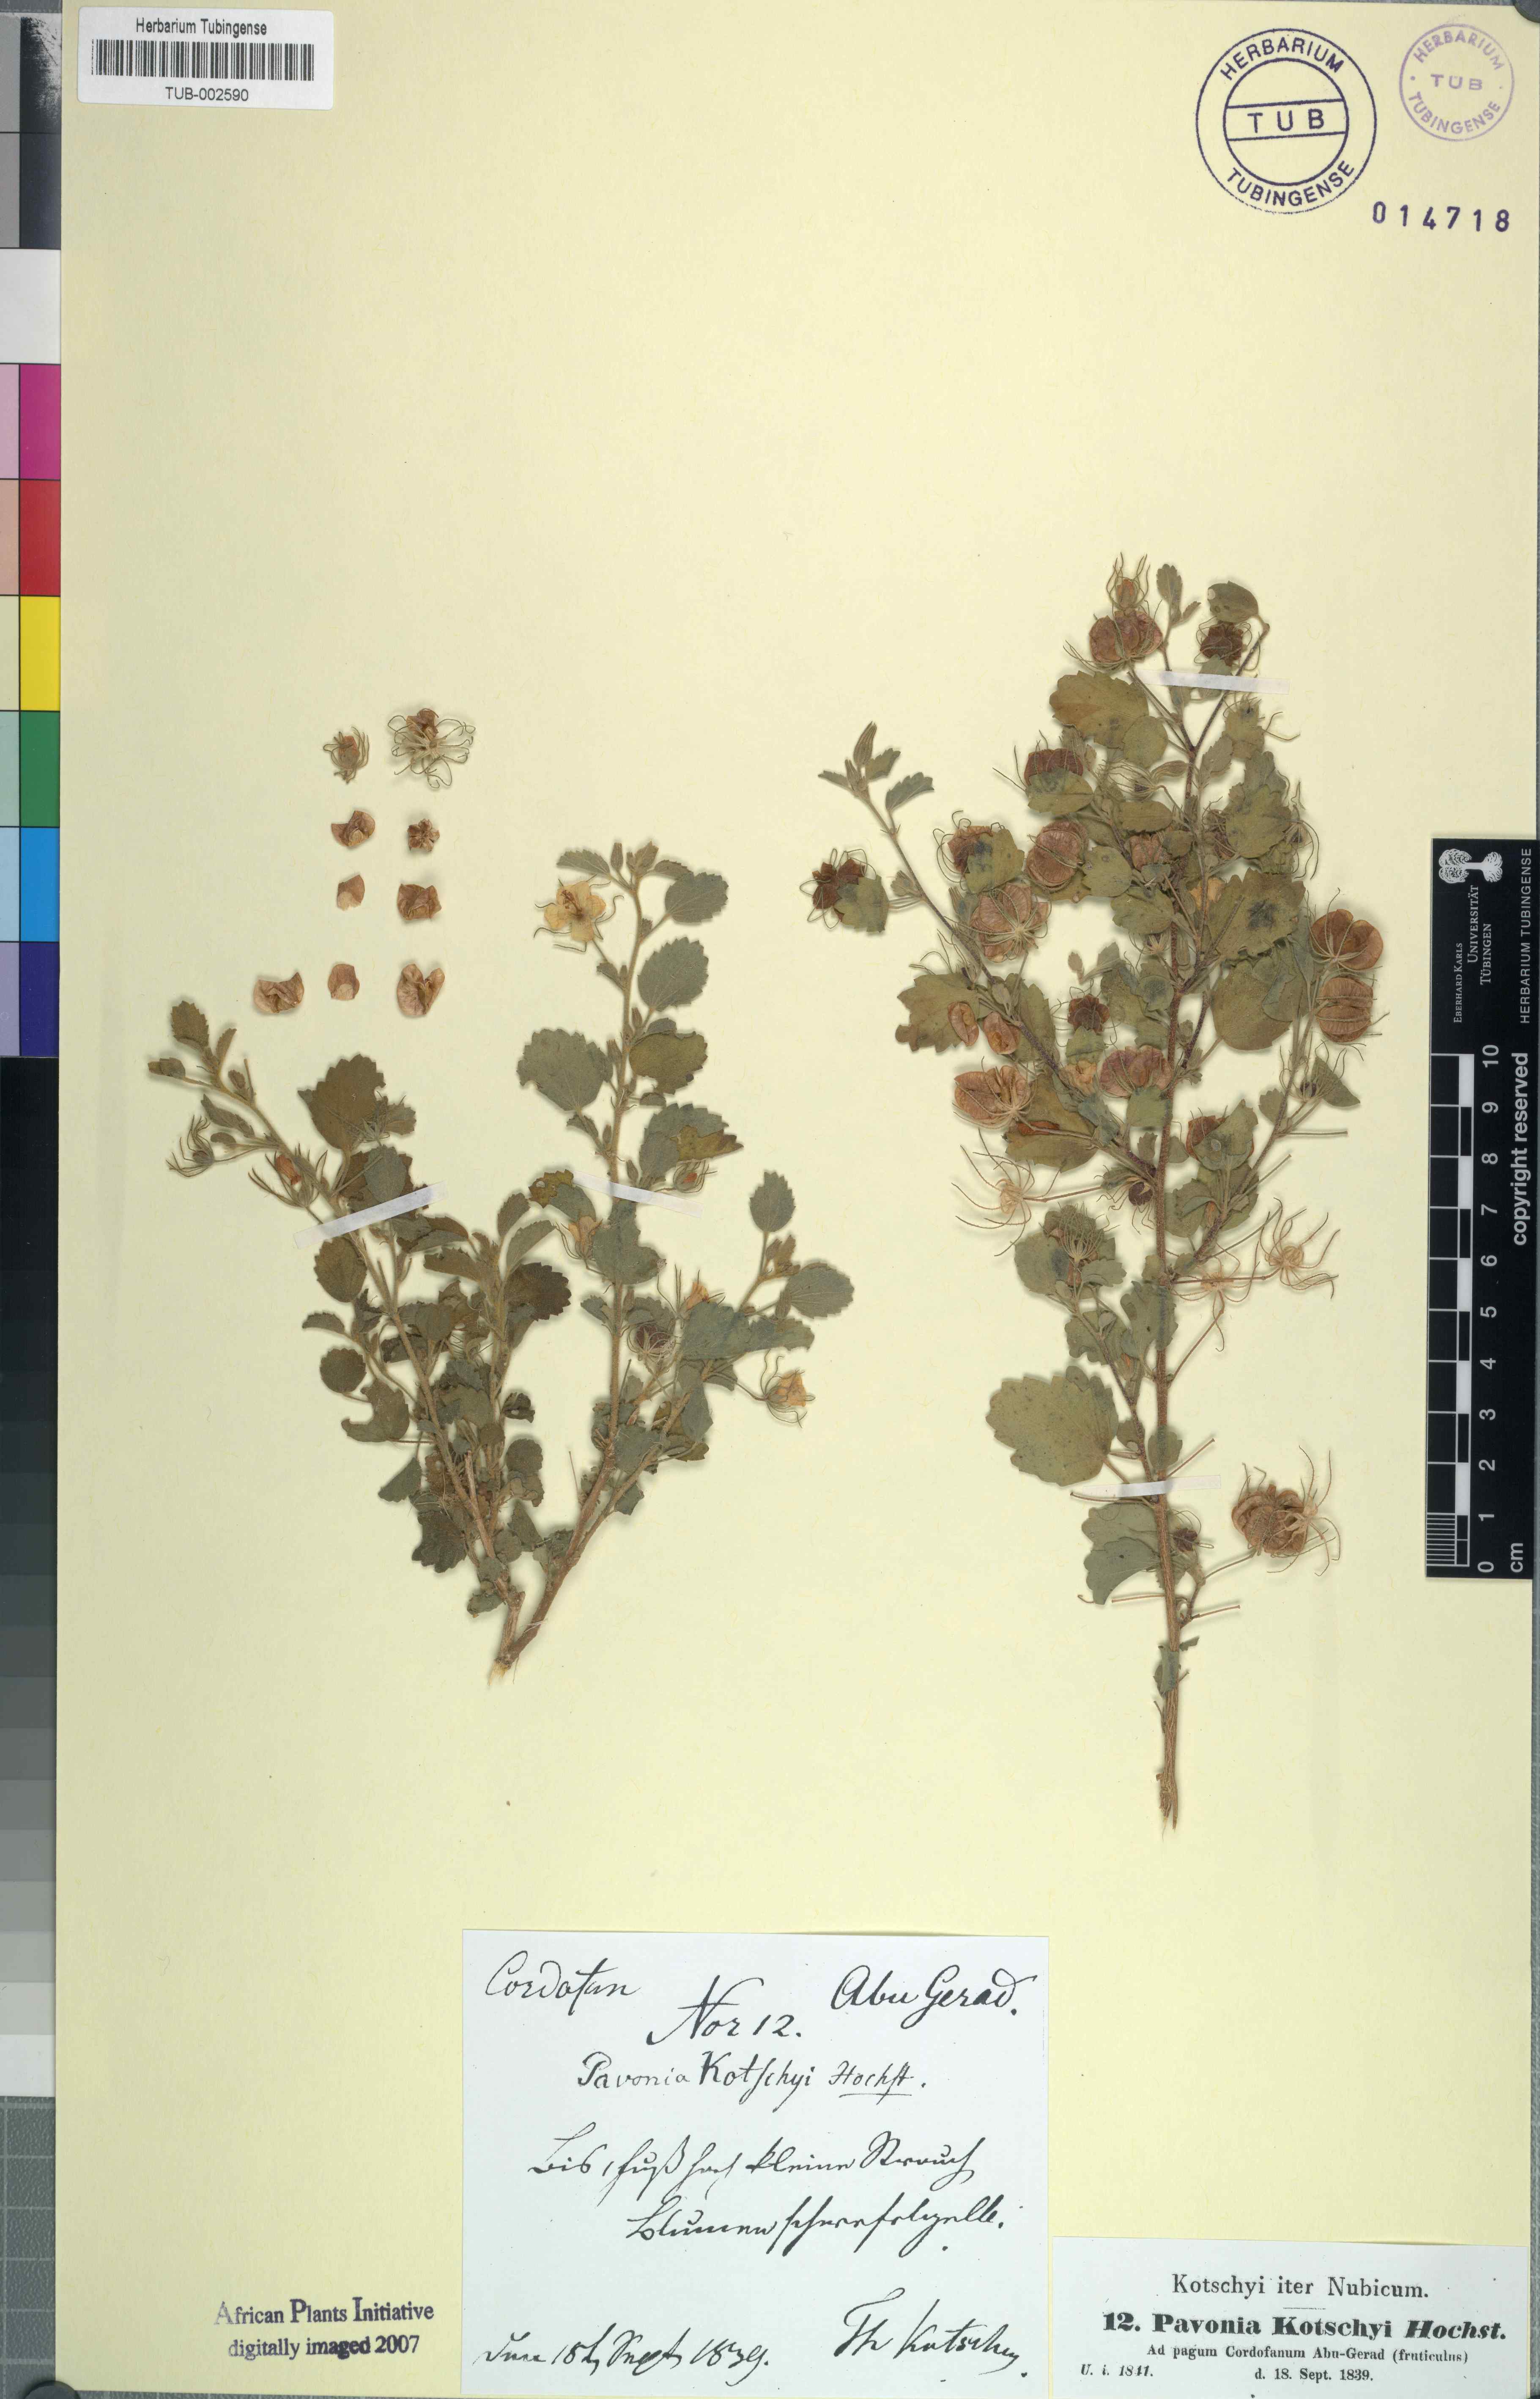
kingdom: Plantae
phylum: Tracheophyta
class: Magnoliopsida
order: Malvales
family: Malvaceae
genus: Pavonia
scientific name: Pavonia kotschyi
